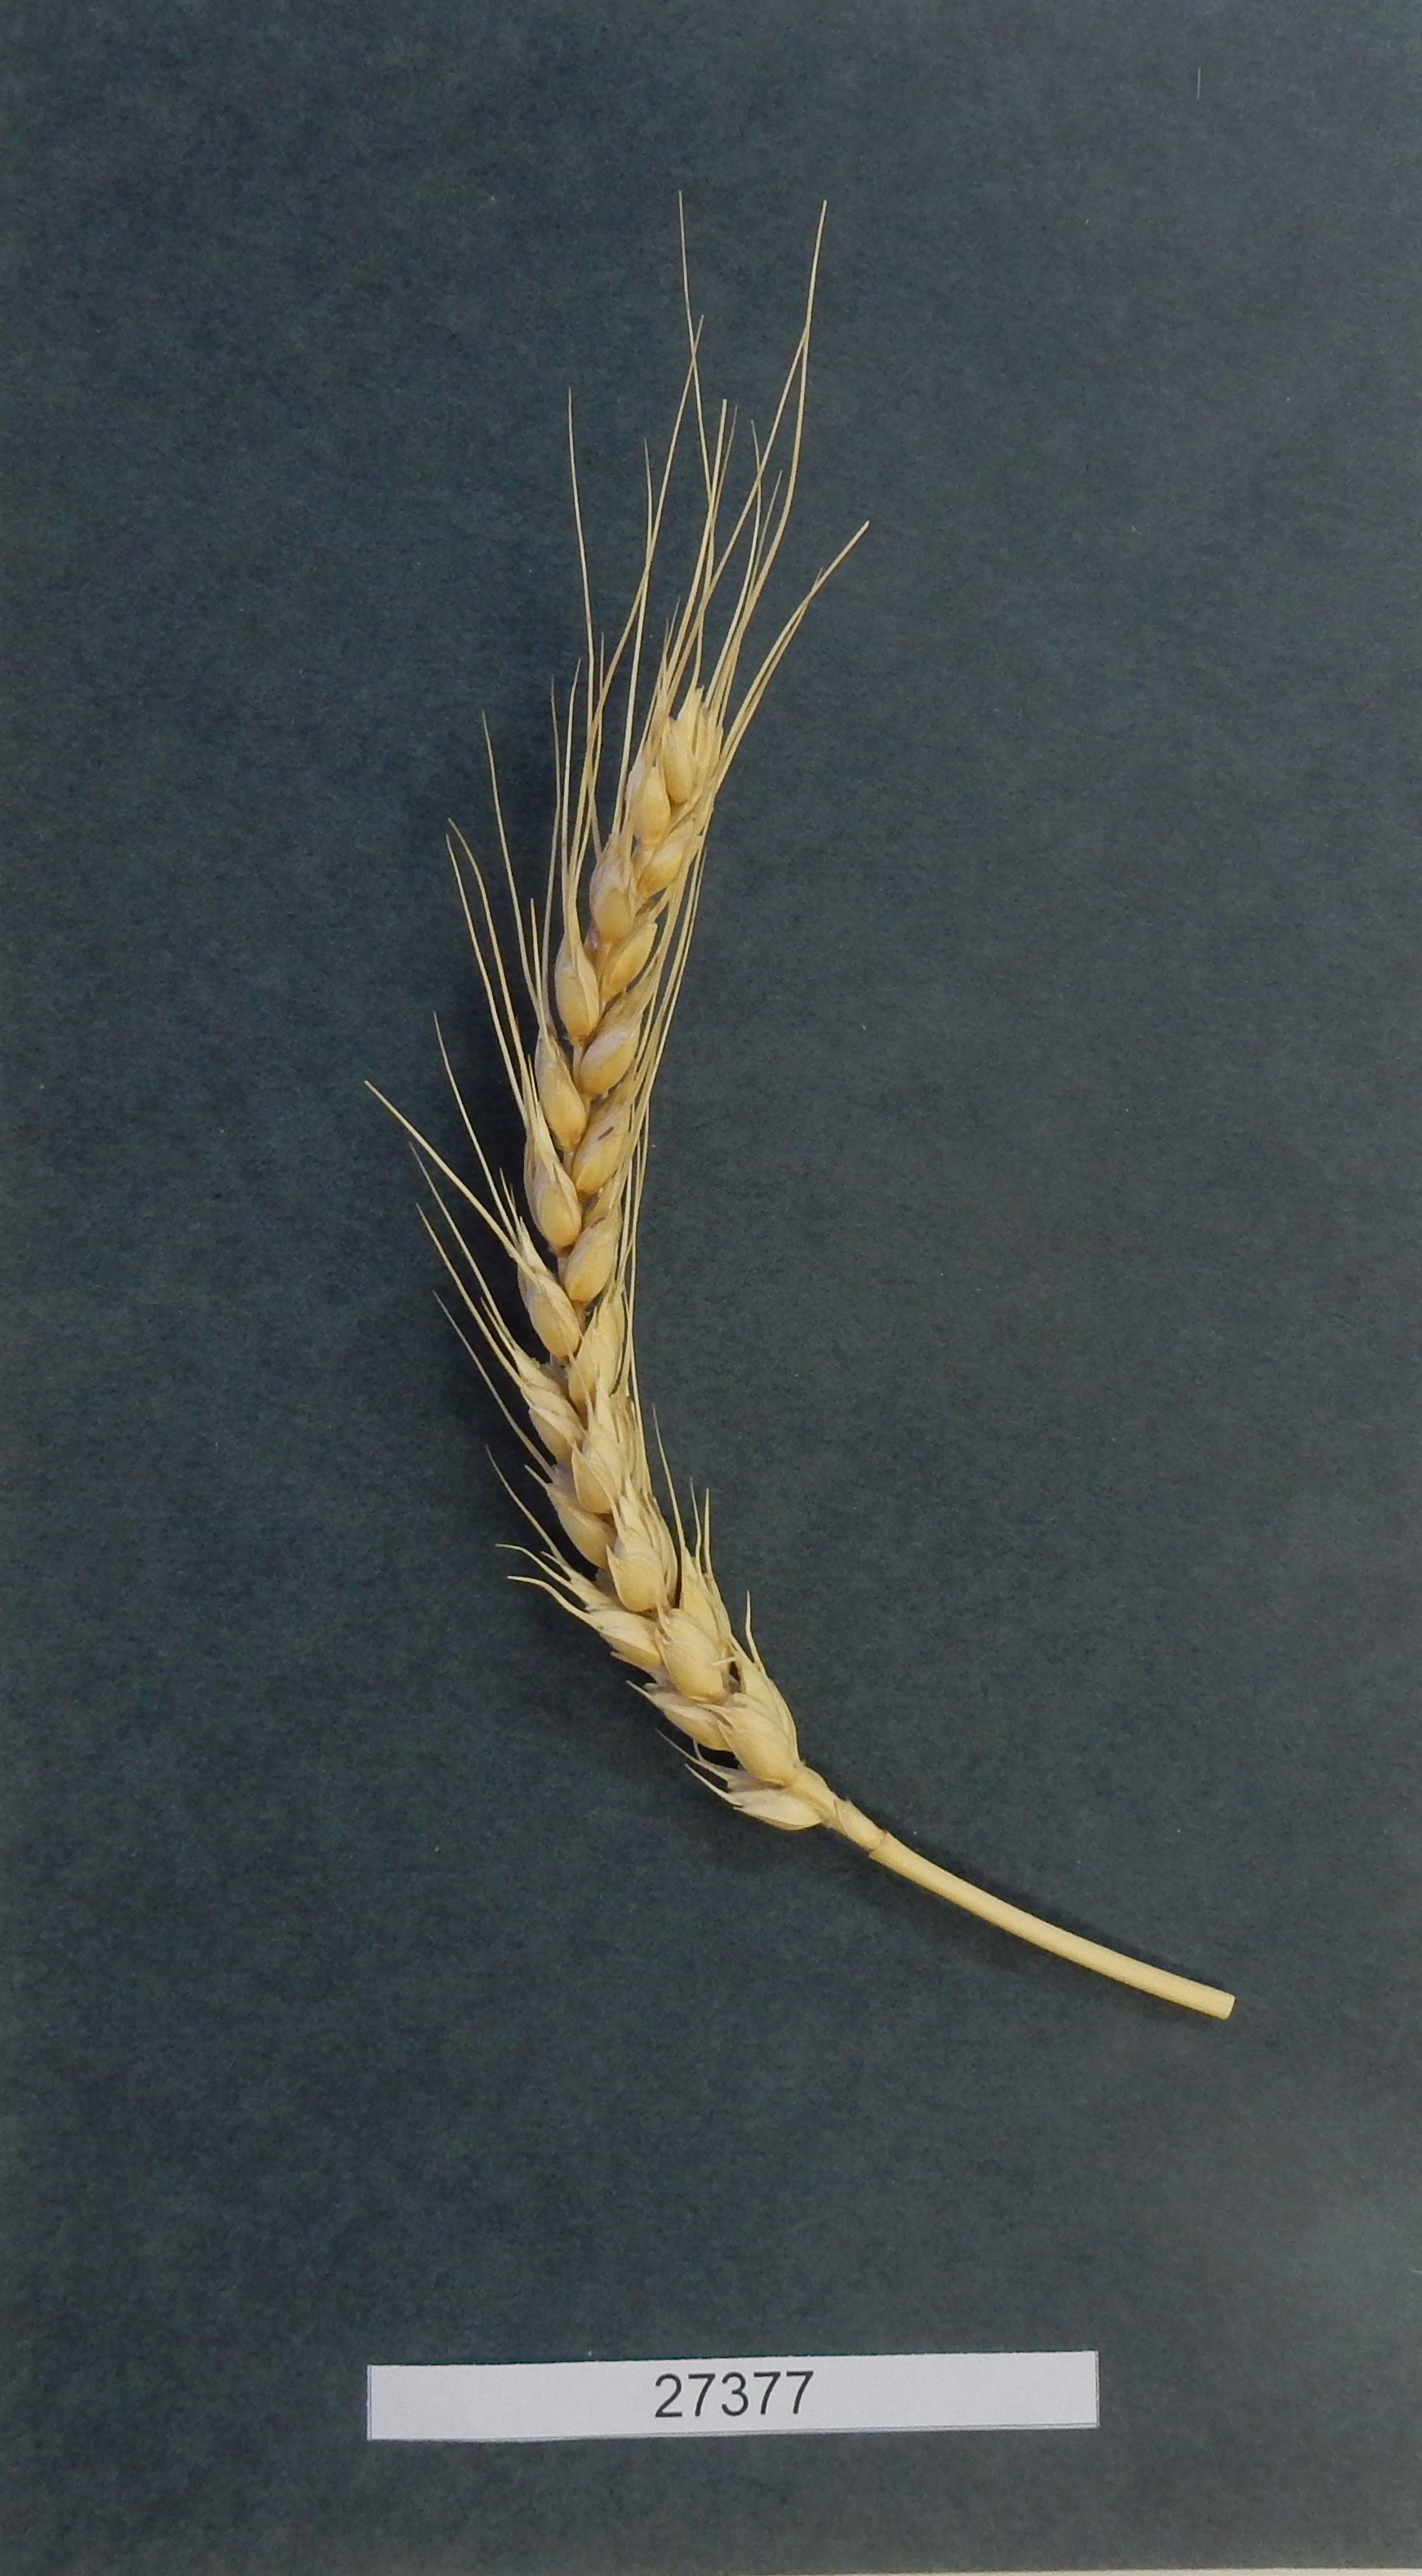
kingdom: Plantae
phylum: Tracheophyta
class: Liliopsida
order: Poales
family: Poaceae
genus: Triticum
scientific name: Triticum aestivum
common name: Common wheat
